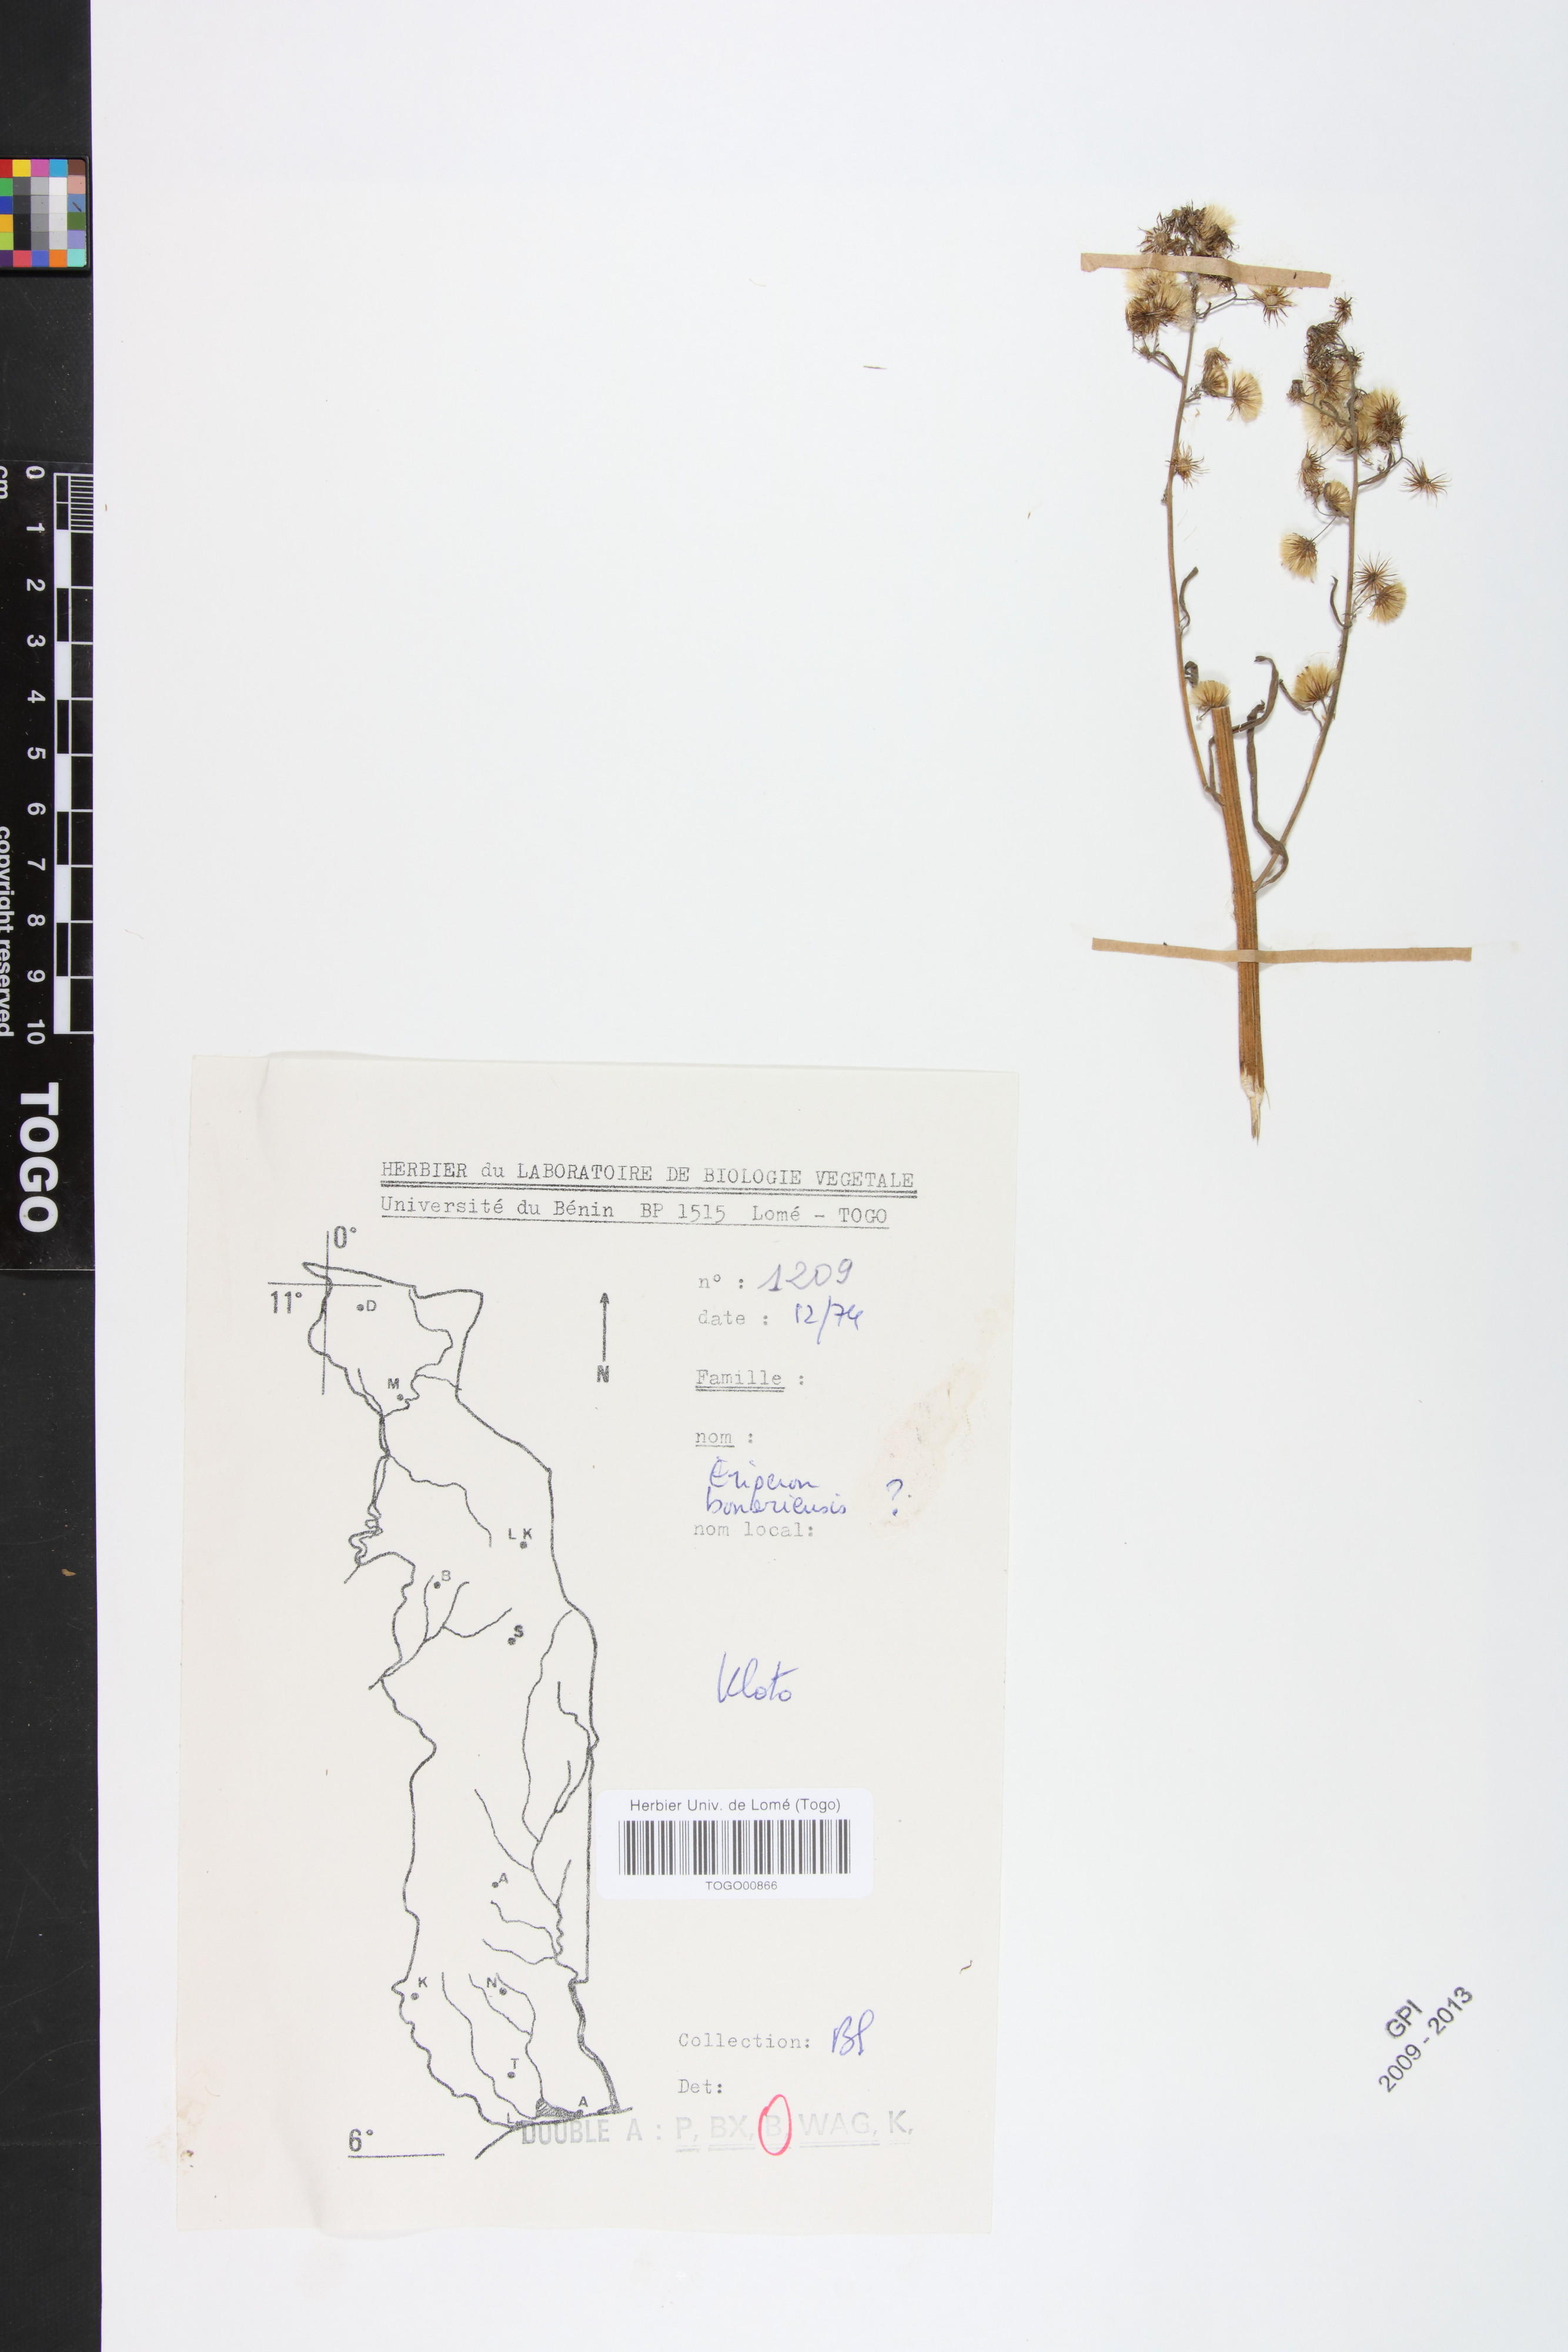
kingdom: Plantae
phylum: Tracheophyta
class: Magnoliopsida
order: Asterales
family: Asteraceae
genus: Erigeron
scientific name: Erigeron bonariensis
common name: Argentine fleabane
